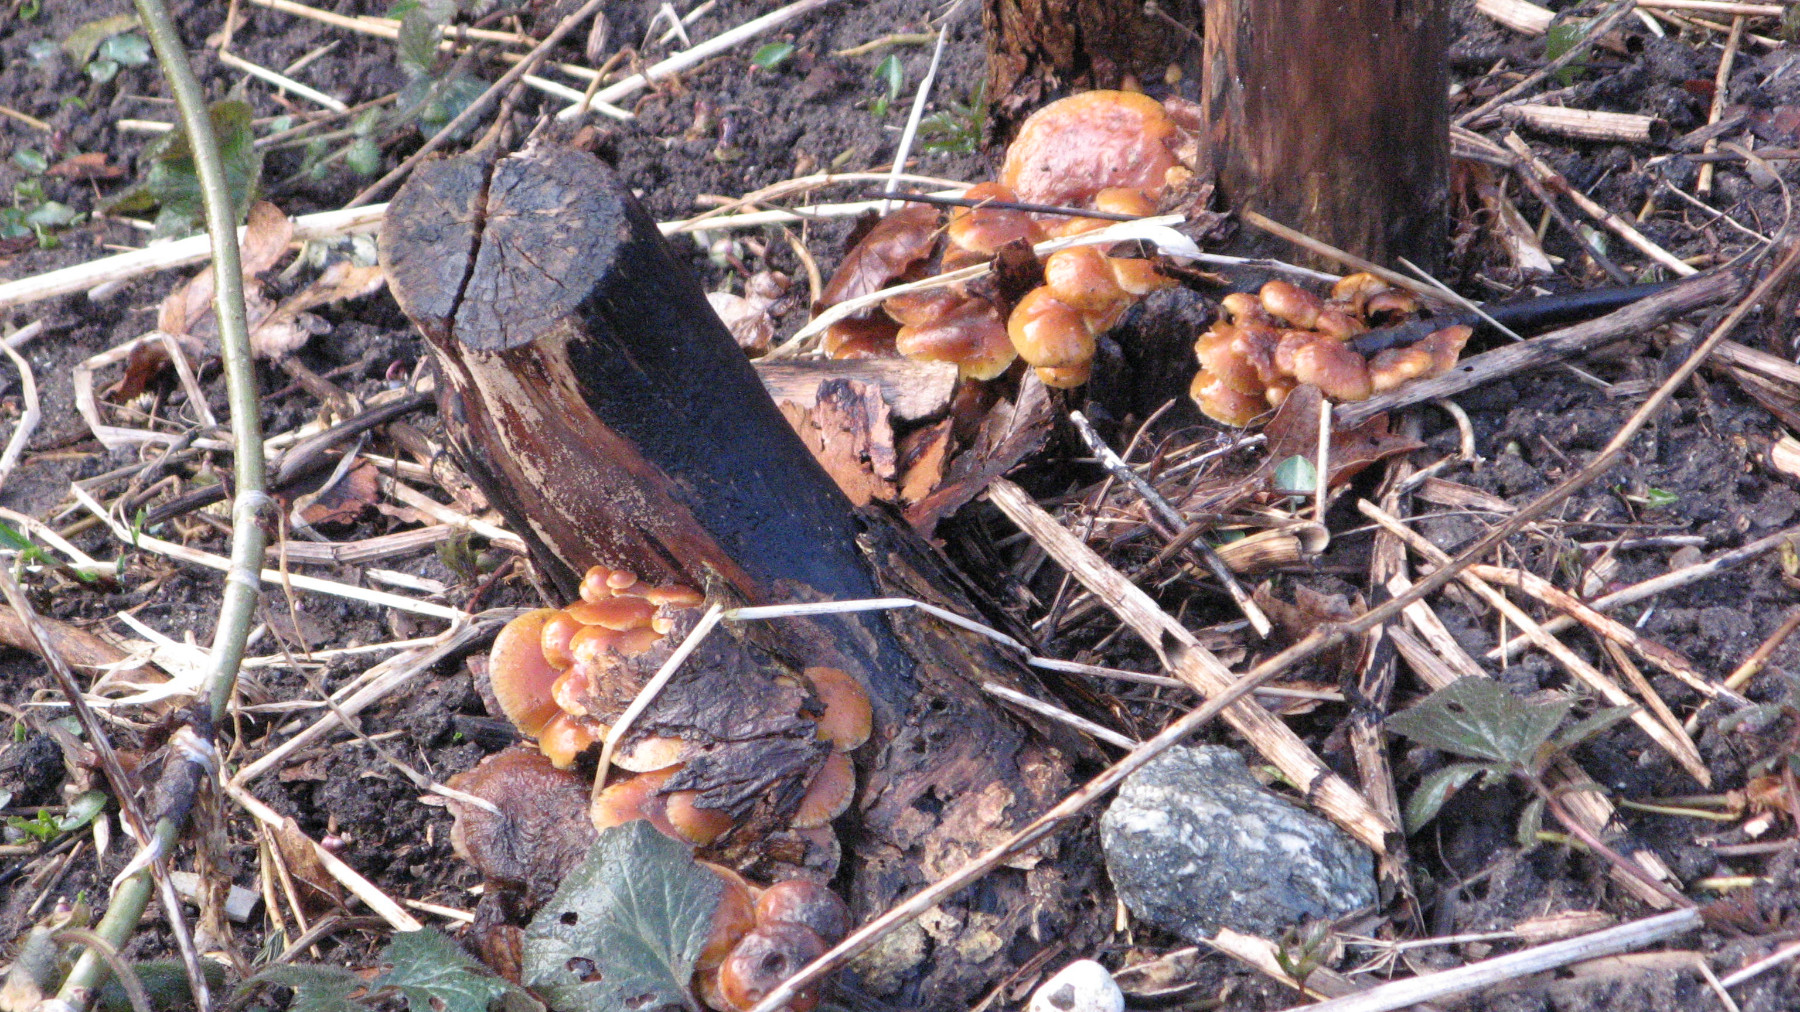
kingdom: Fungi
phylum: Basidiomycota
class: Agaricomycetes
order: Agaricales
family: Physalacriaceae
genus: Flammulina
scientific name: Flammulina velutipes
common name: gul fløjlsfod
